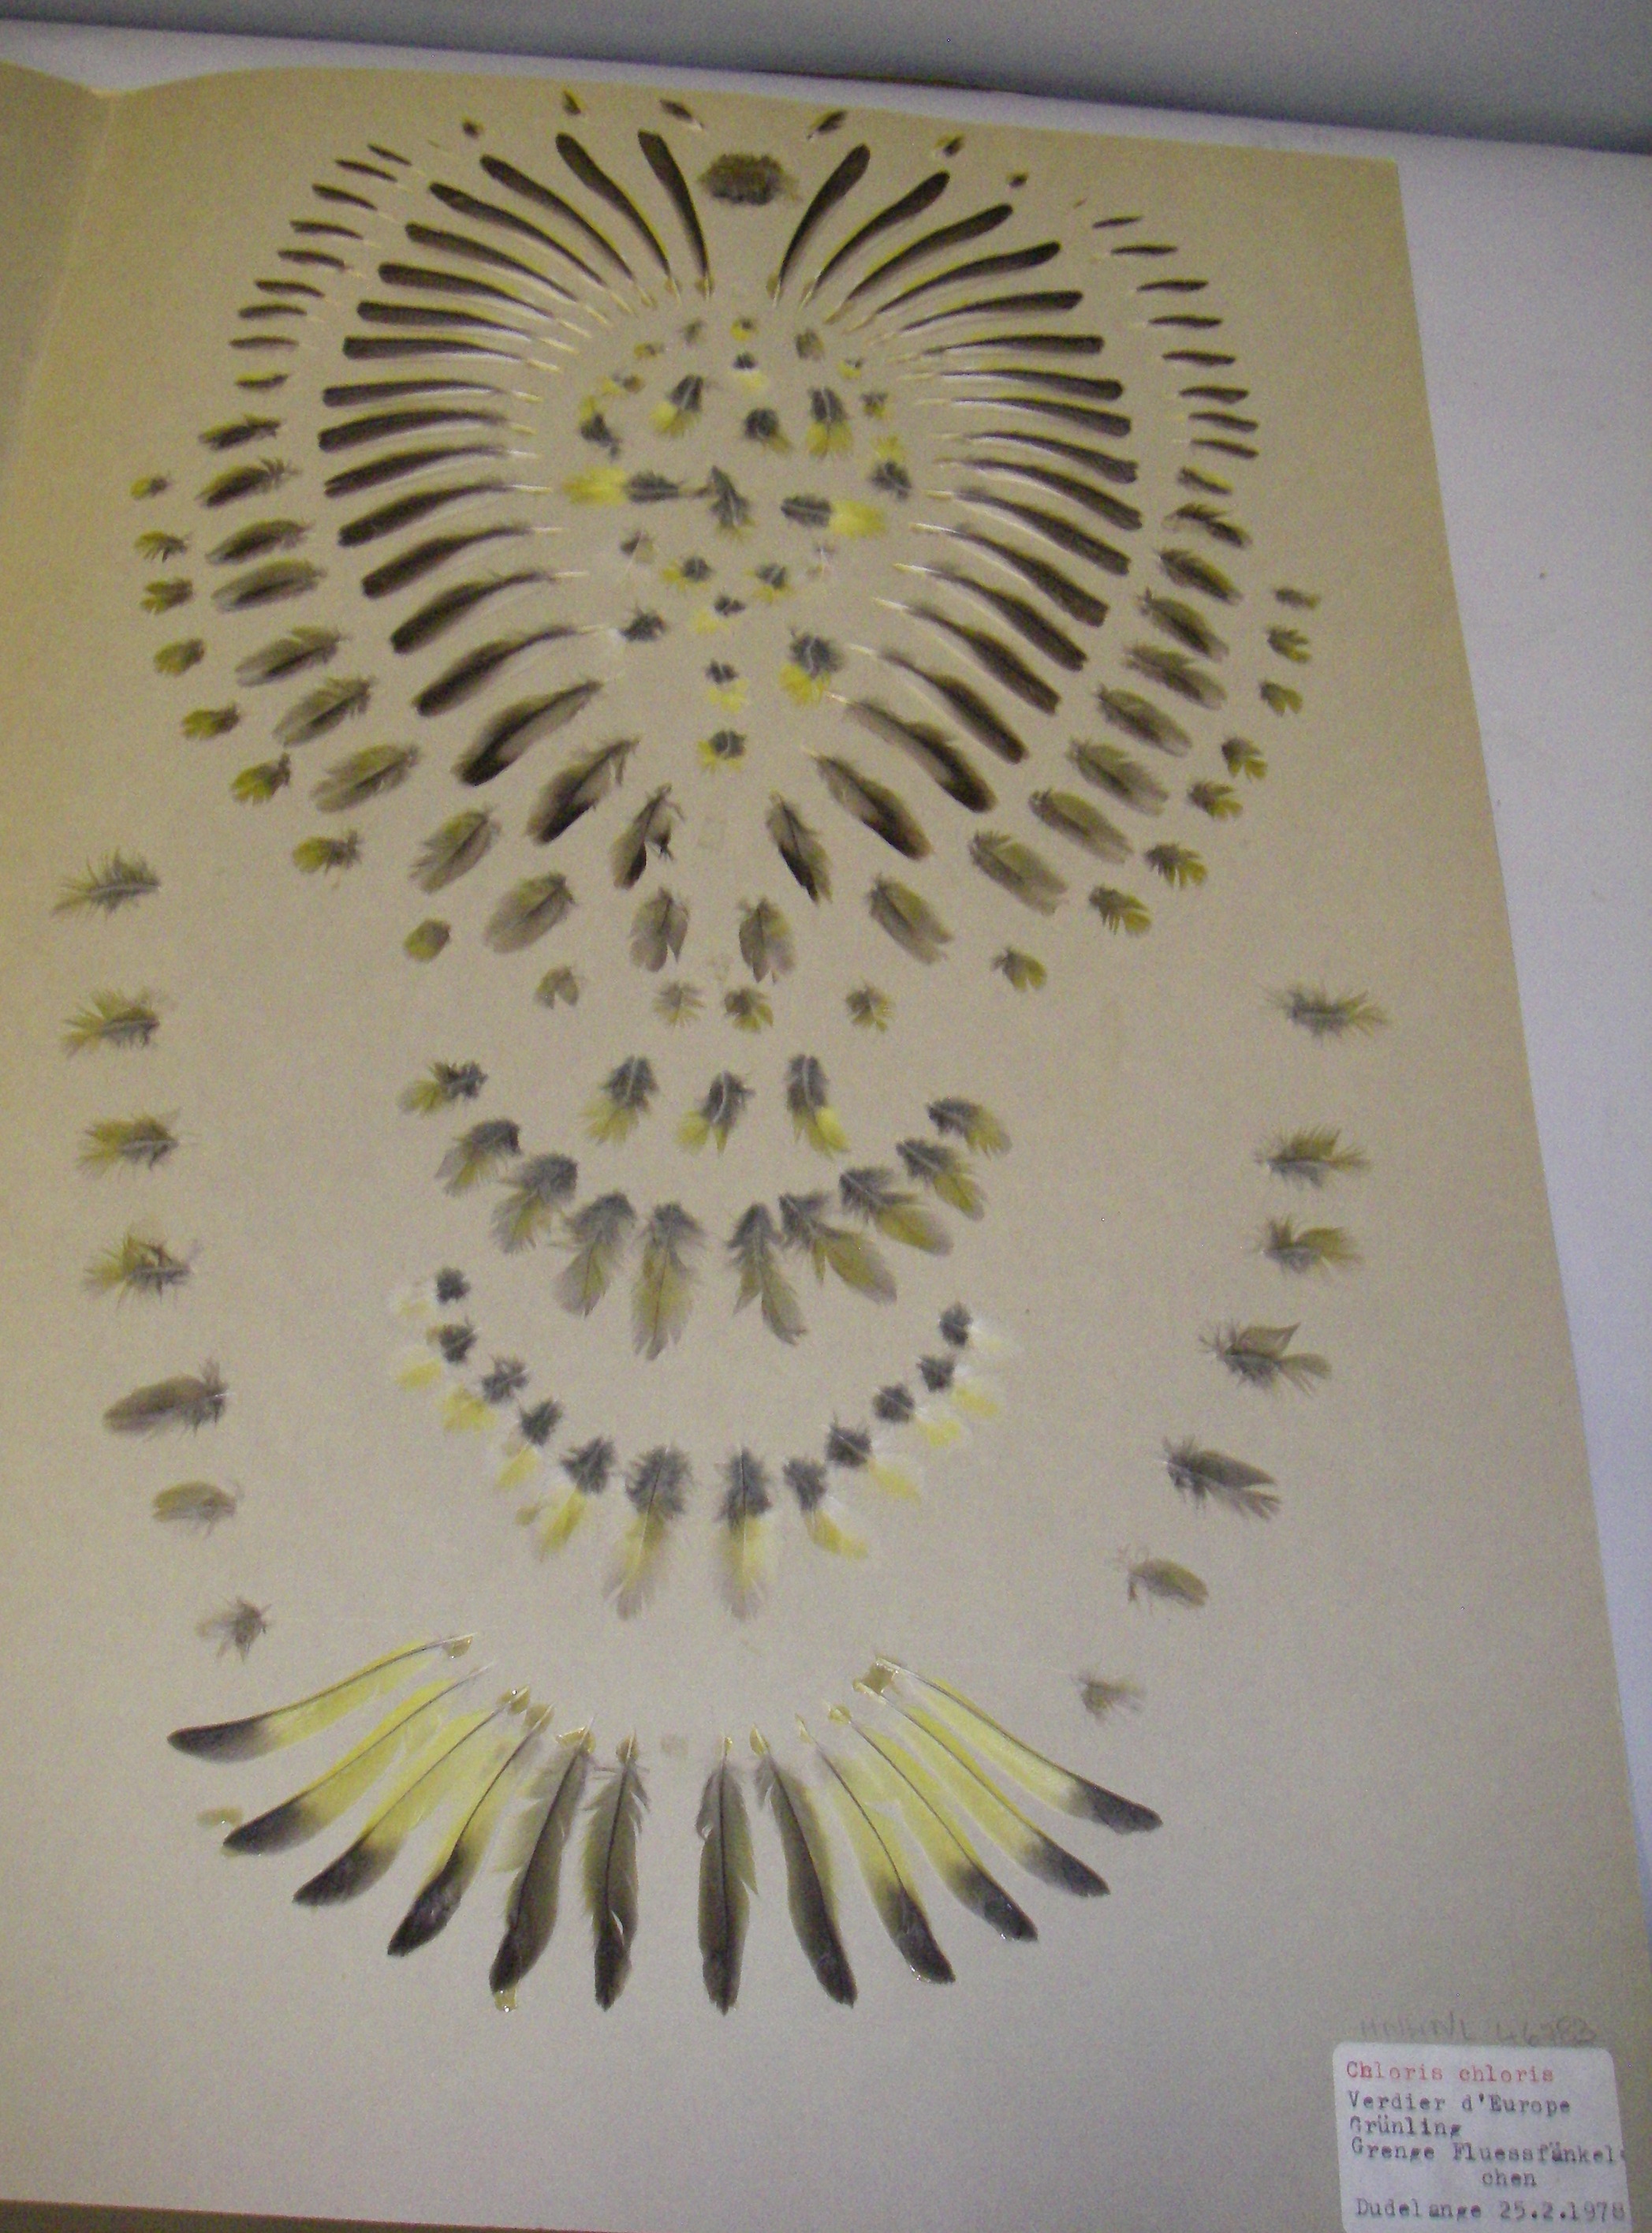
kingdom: Plantae
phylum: Tracheophyta
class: Liliopsida
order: Poales
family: Poaceae
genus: Chloris
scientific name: Chloris chloris
